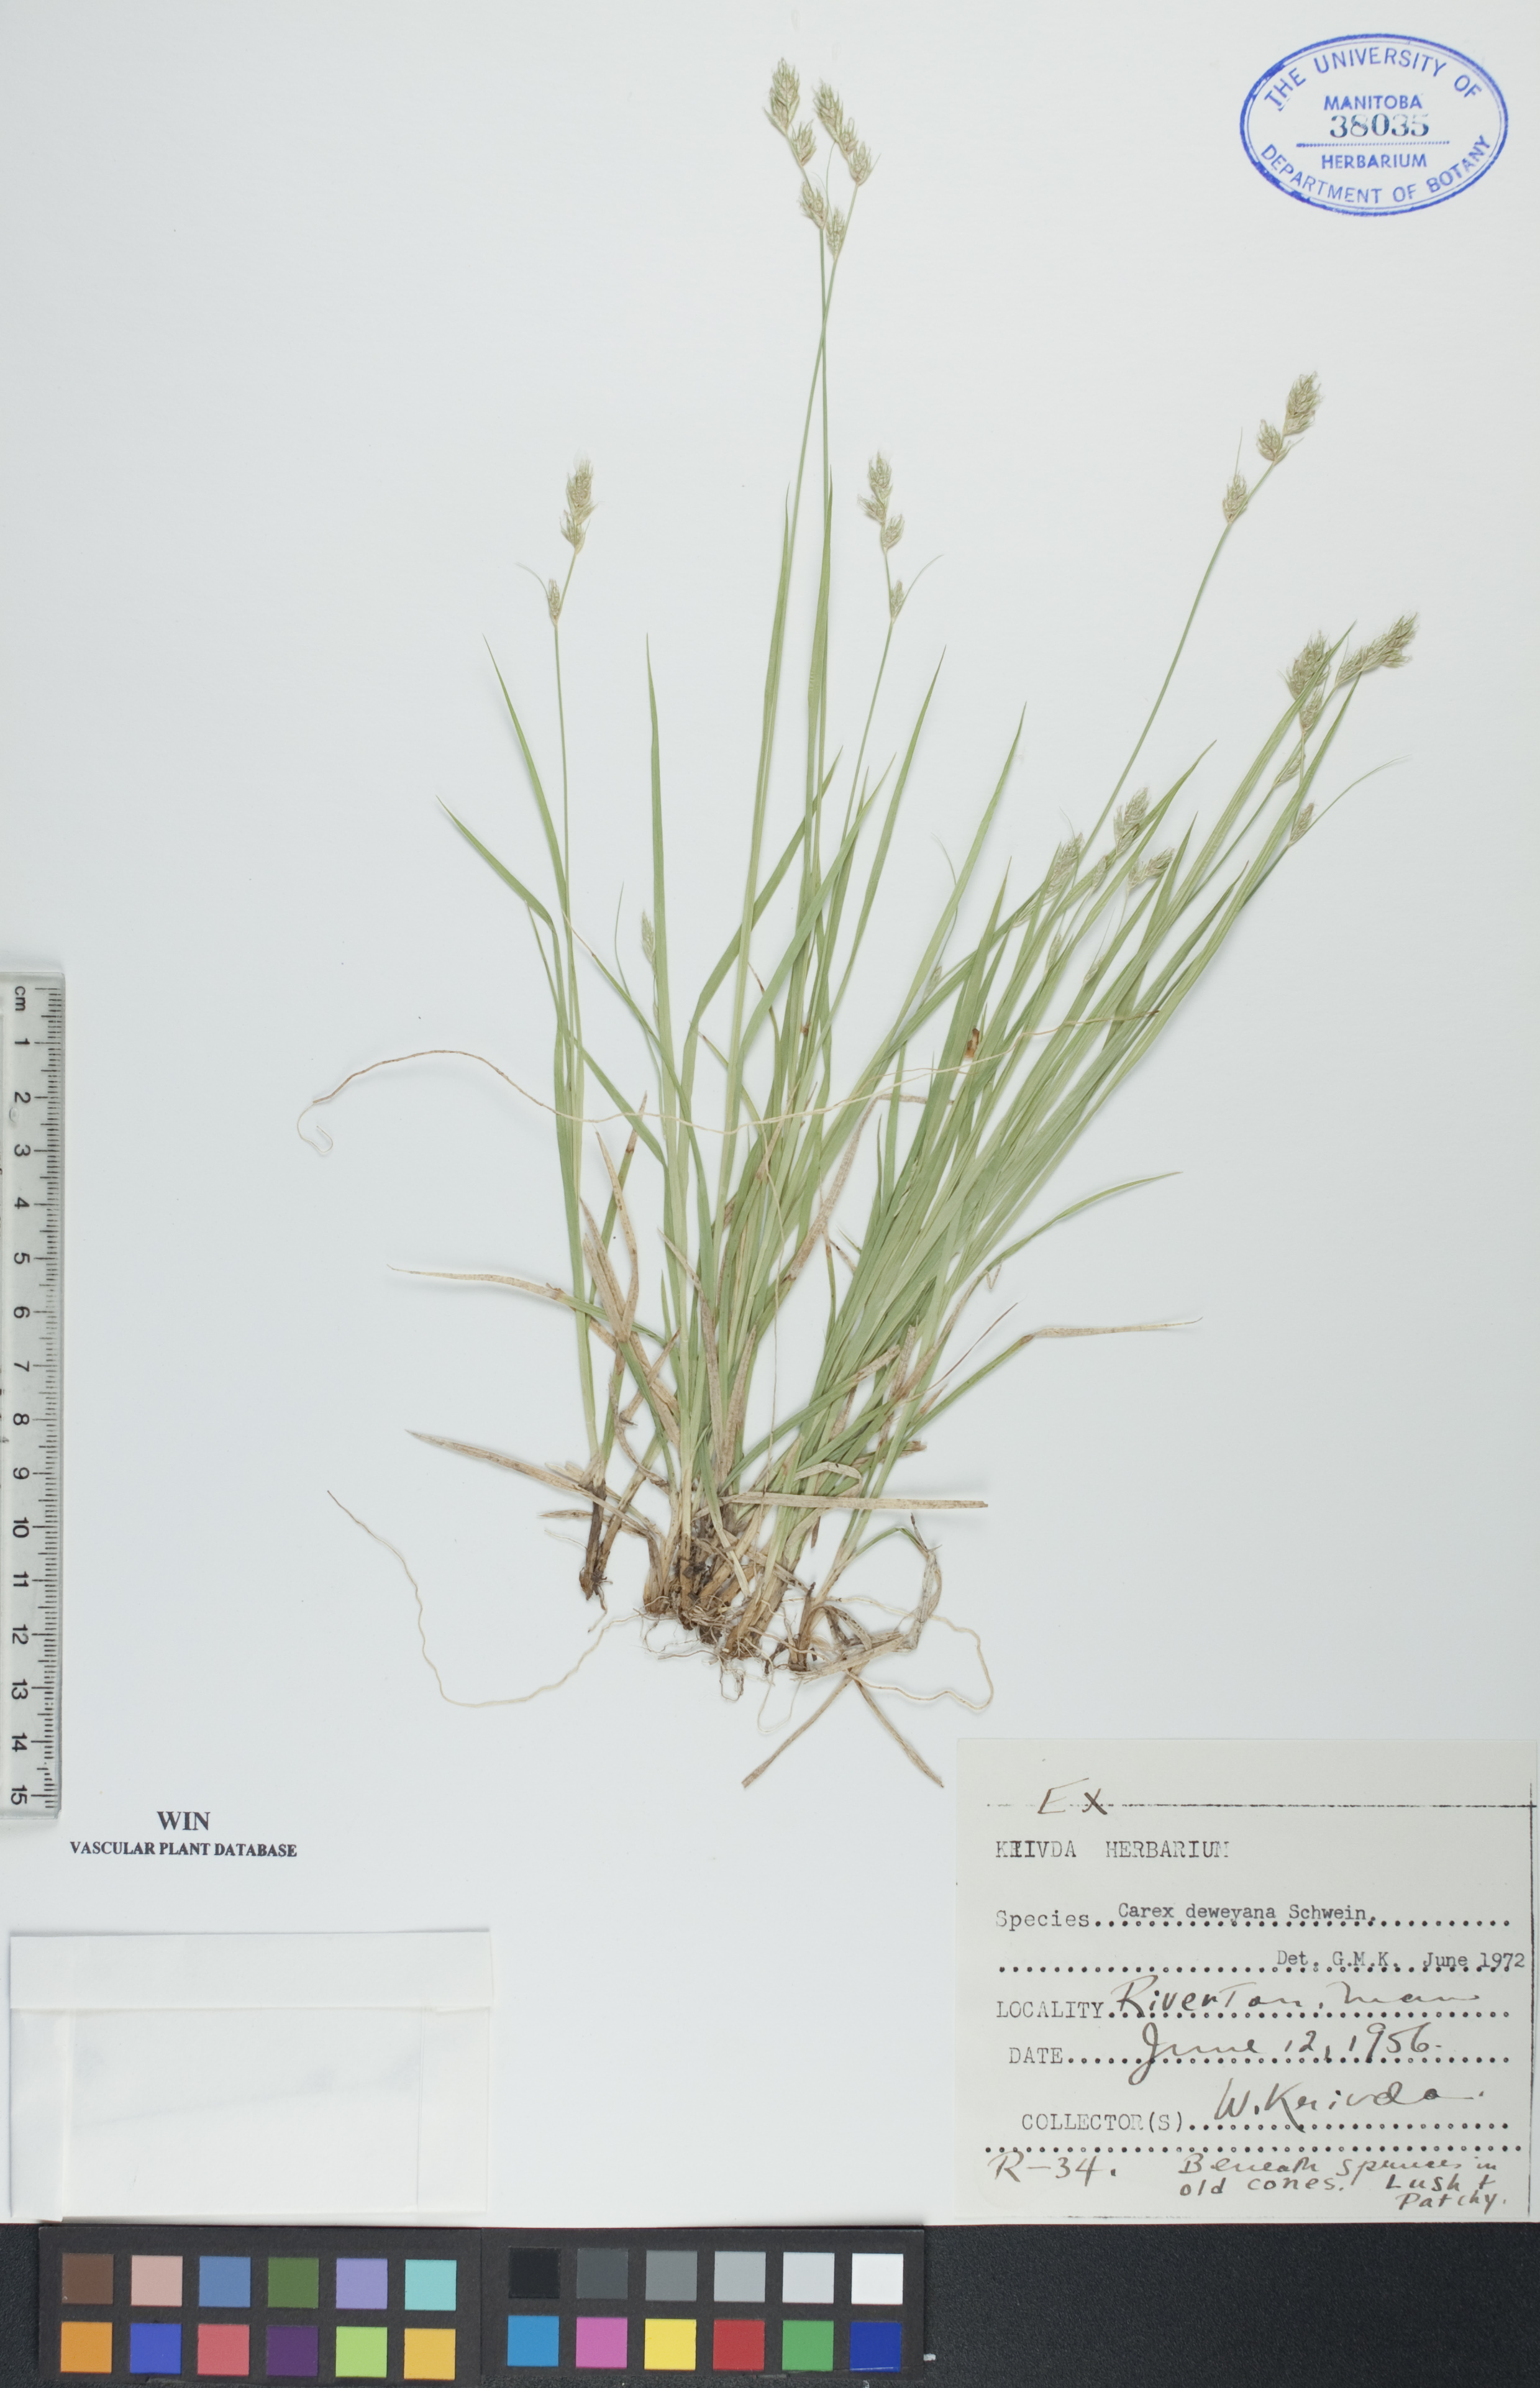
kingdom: Plantae
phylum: Tracheophyta
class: Liliopsida
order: Poales
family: Cyperaceae
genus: Carex
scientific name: Carex deweyana
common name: Dewey's sedge
